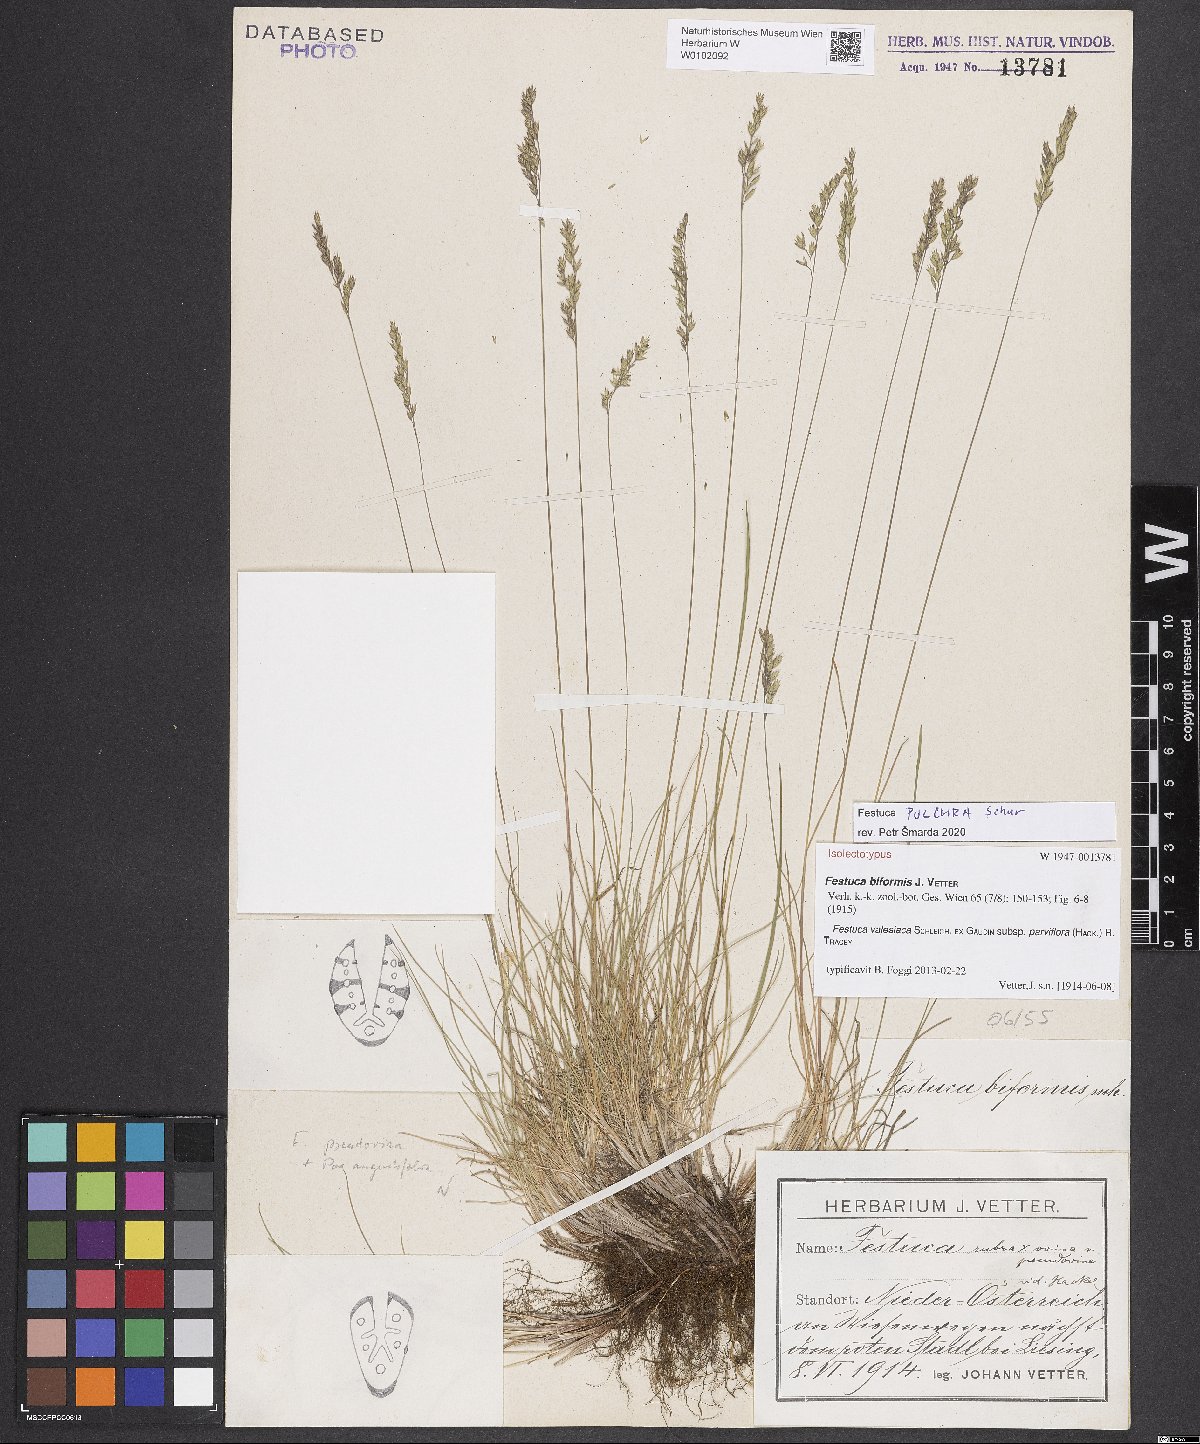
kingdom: Plantae
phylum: Tracheophyta
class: Liliopsida
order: Poales
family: Poaceae
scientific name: Poaceae
